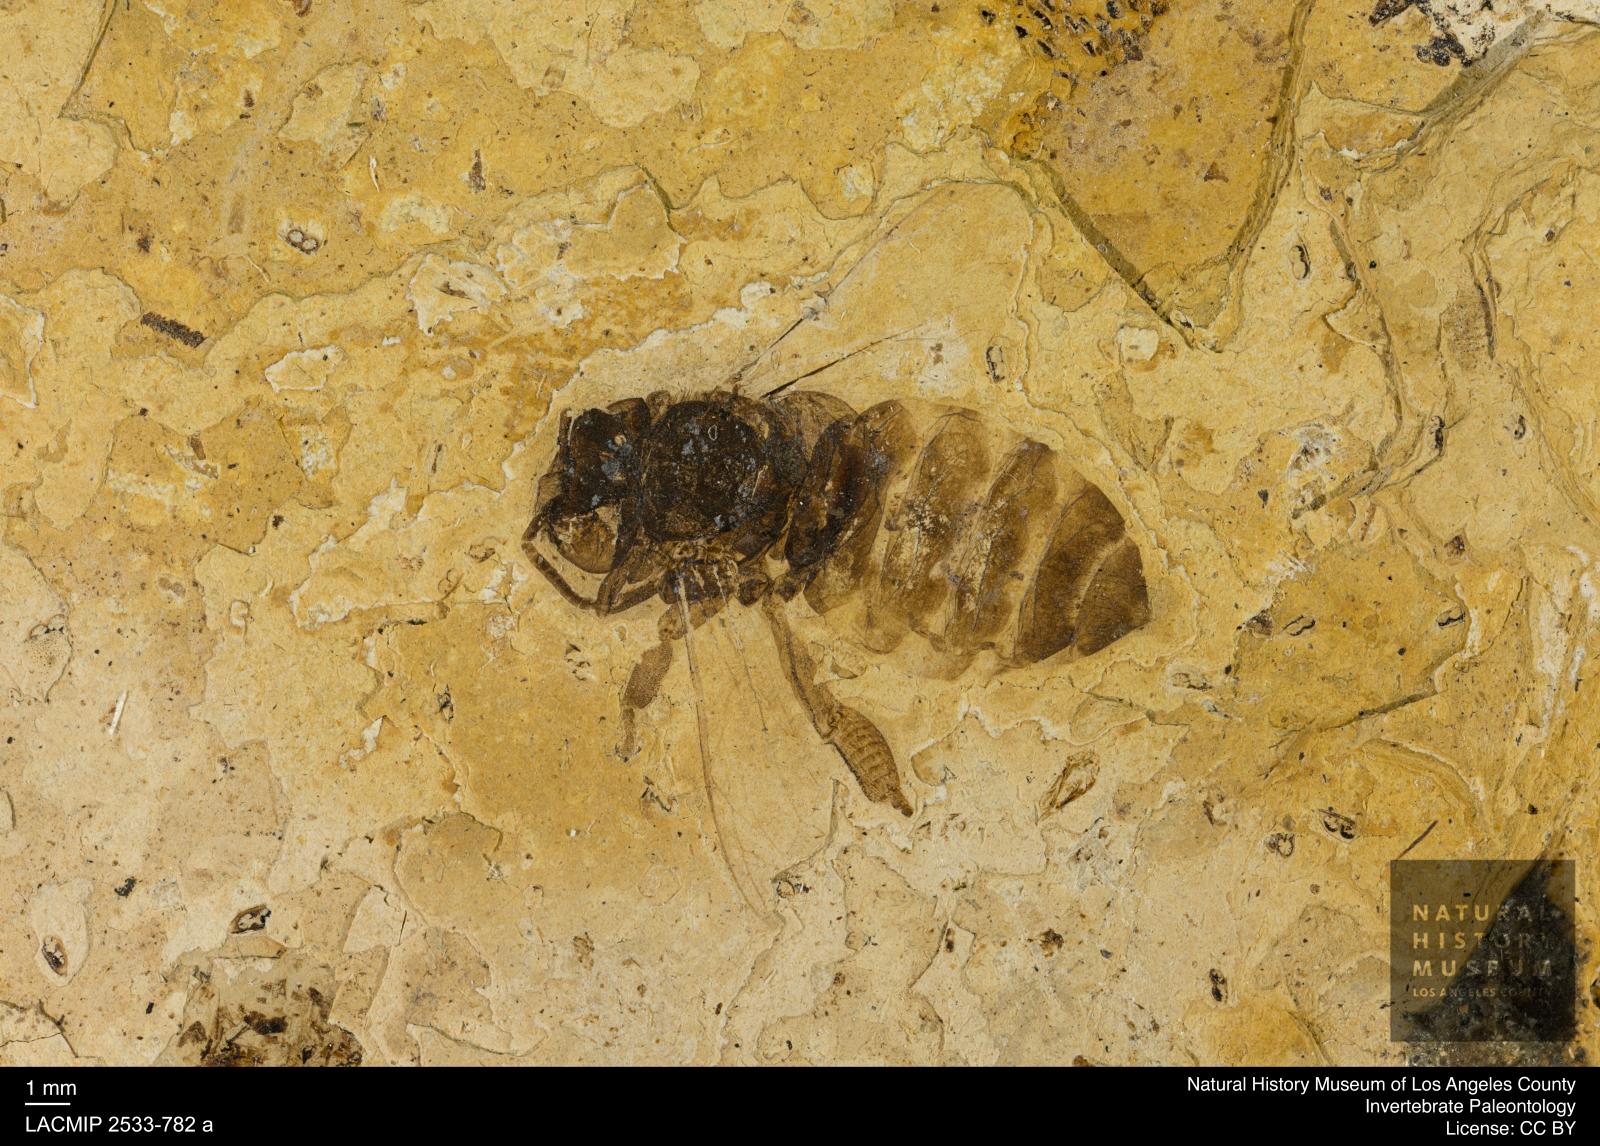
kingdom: Animalia
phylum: Arthropoda
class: Insecta
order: Hymenoptera
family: Apidae
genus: Apis
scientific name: Apis henshawi
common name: Henshaw's honey bee
